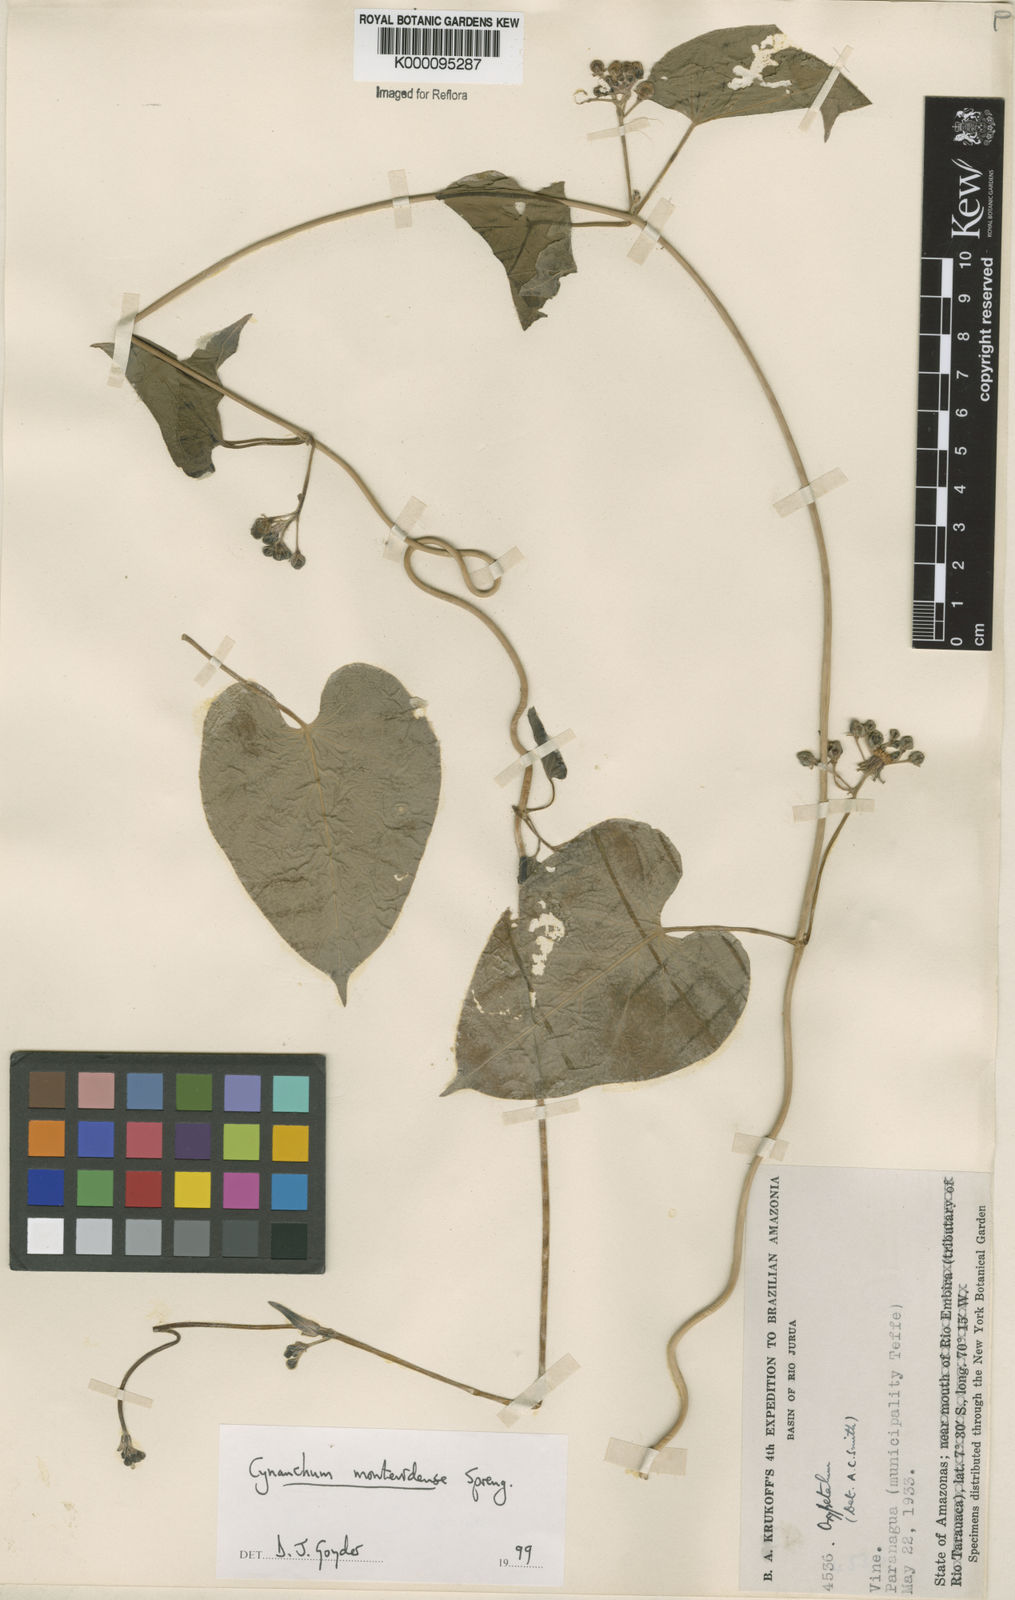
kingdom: Plantae
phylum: Tracheophyta
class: Magnoliopsida
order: Gentianales
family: Apocynaceae
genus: Cynanchum
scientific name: Cynanchum montevidense
